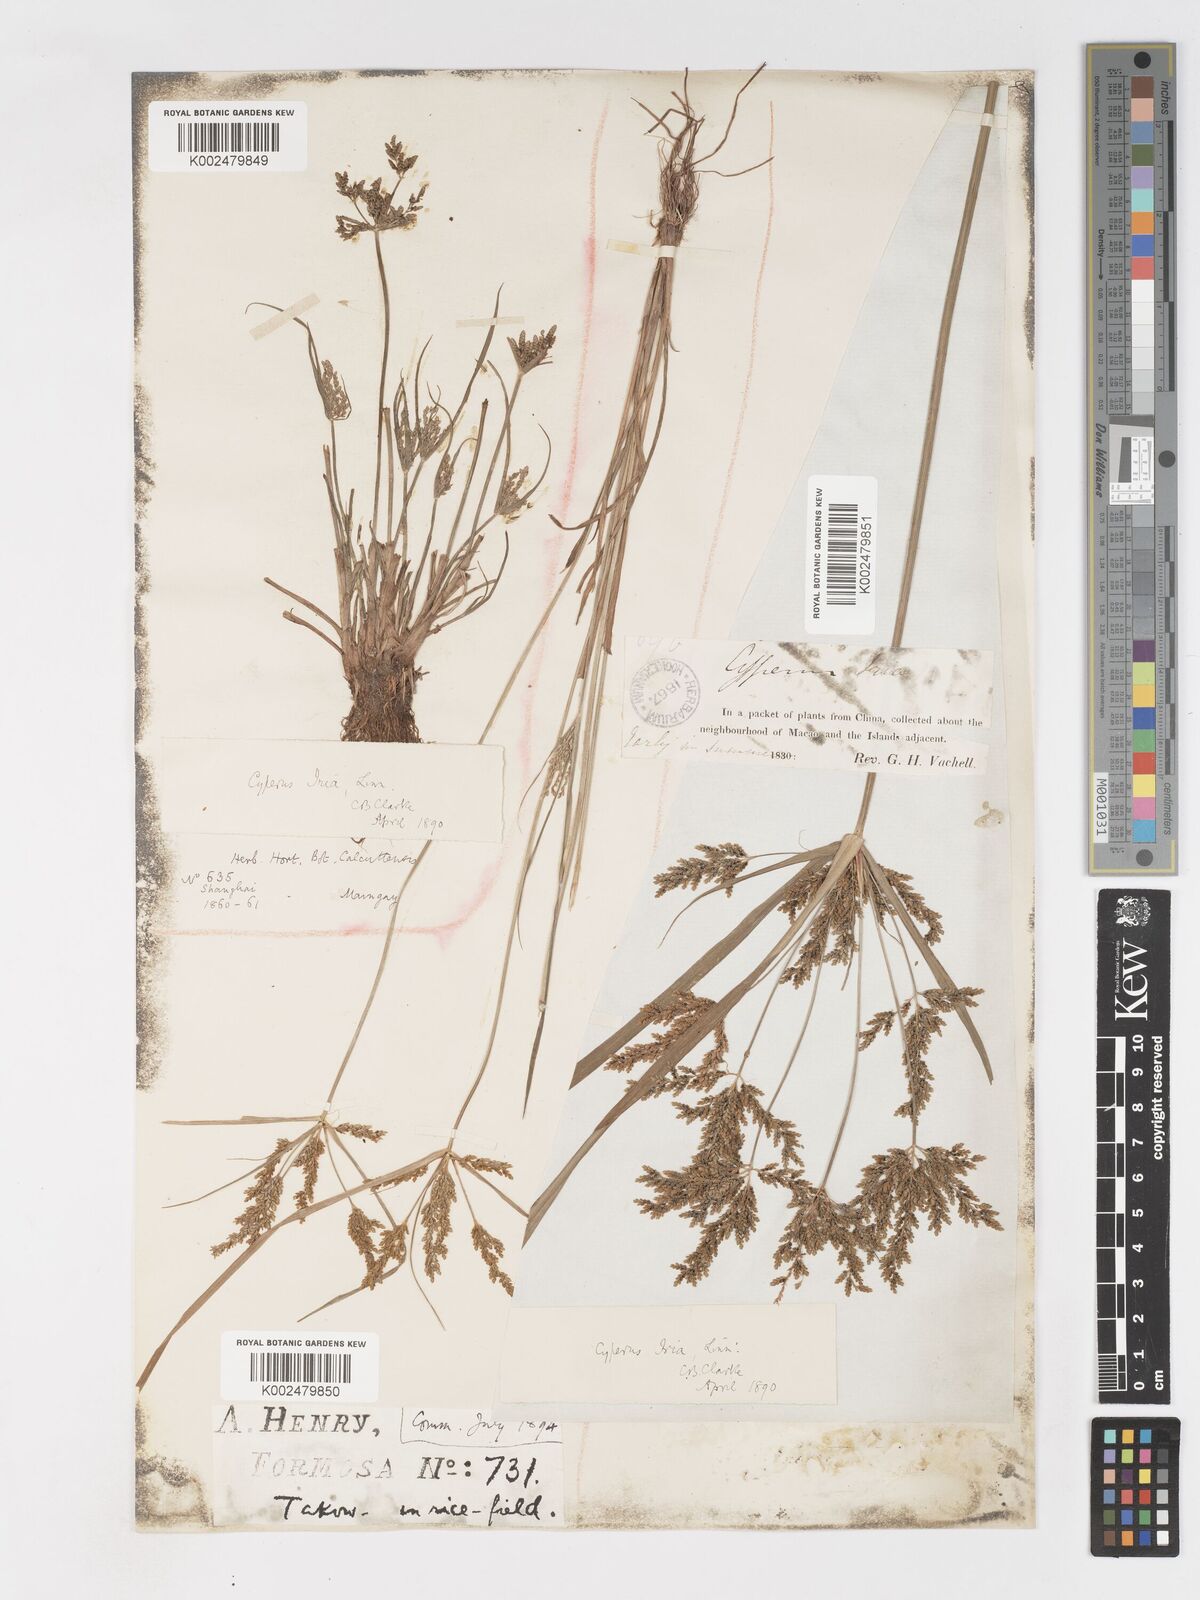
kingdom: Plantae
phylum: Tracheophyta
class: Liliopsida
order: Poales
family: Cyperaceae
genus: Cyperus
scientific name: Cyperus iria
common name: Ricefield flatsedge
